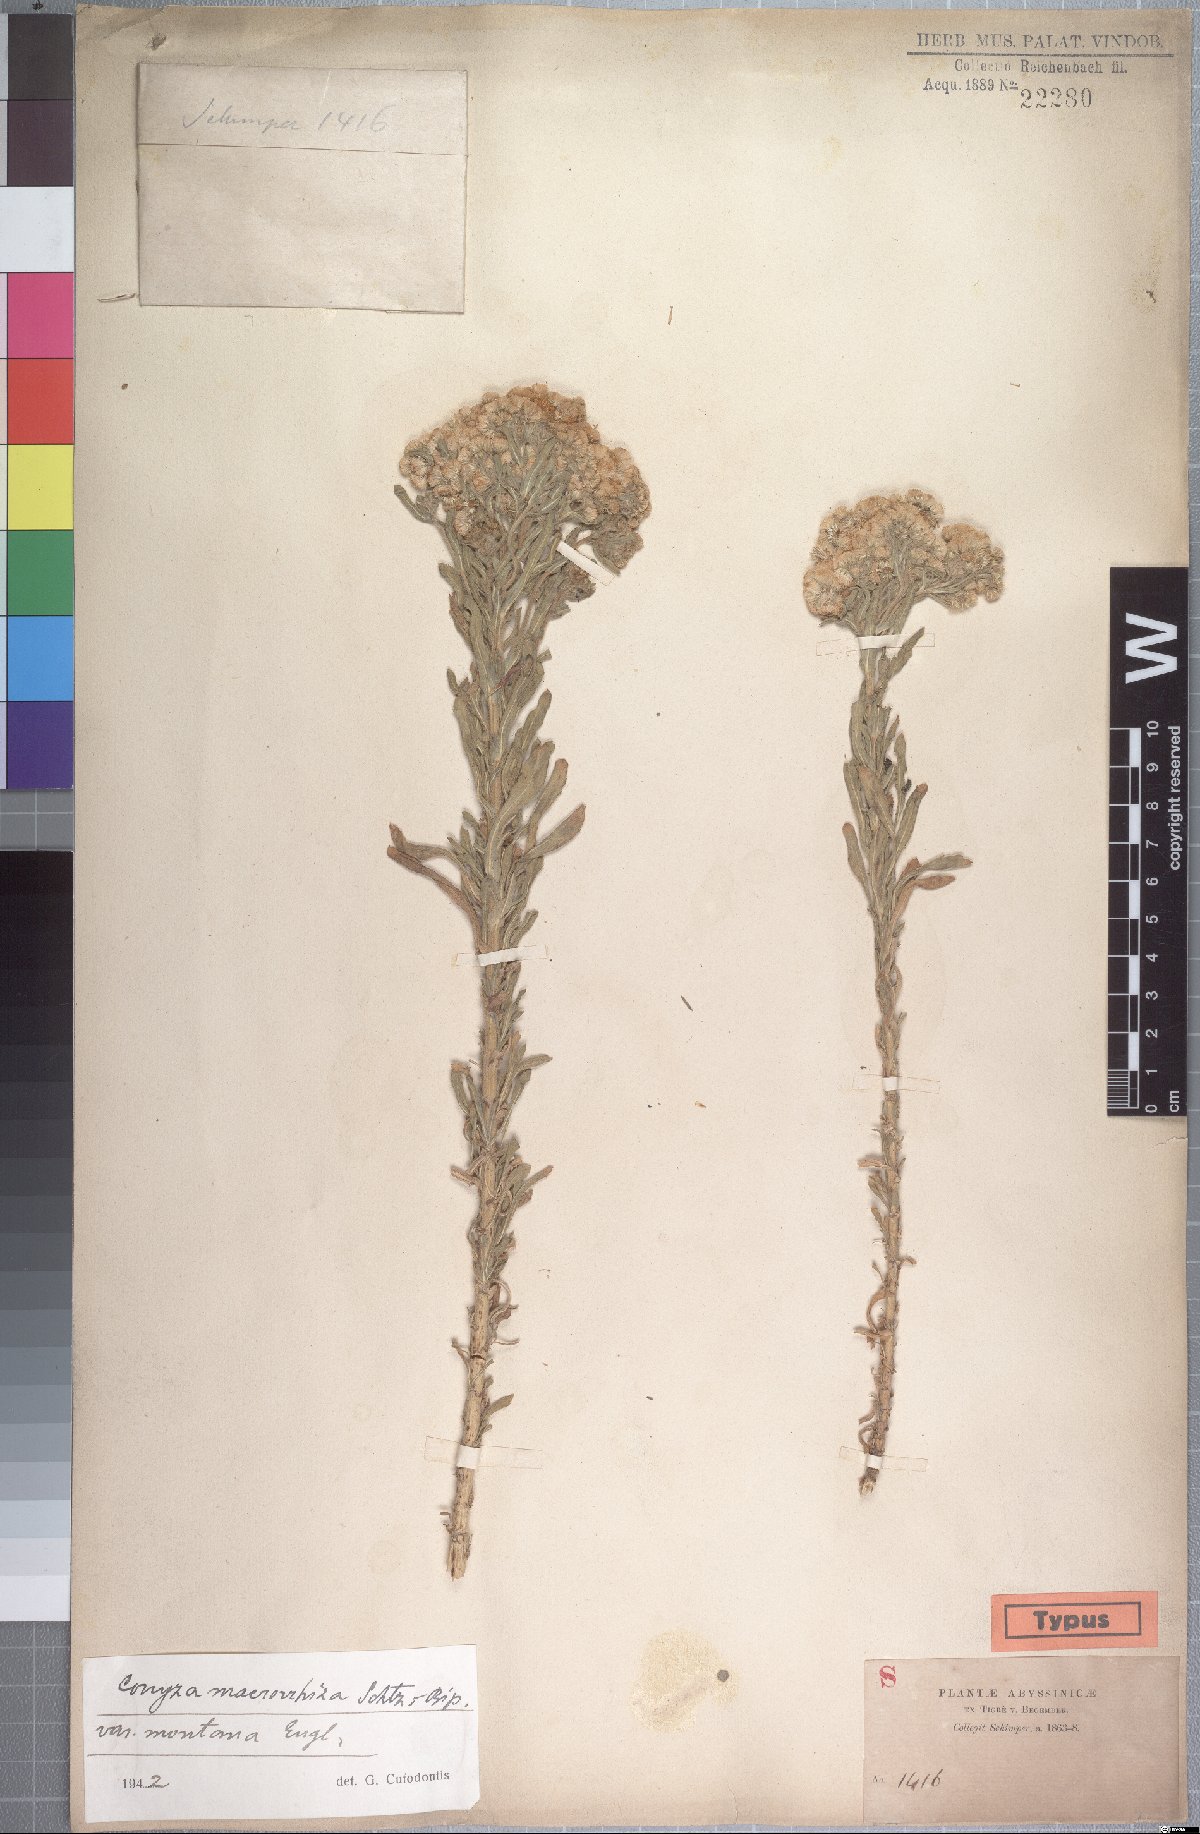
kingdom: Plantae
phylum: Tracheophyta
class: Magnoliopsida
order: Asterales
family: Asteraceae
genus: Nidorella
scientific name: Nidorella triloba
